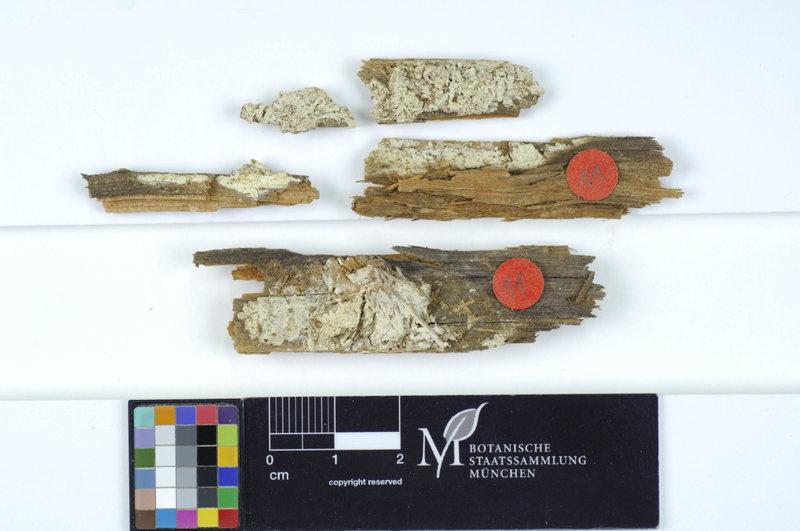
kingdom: Plantae
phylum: Tracheophyta
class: Pinopsida
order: Pinales
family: Pinaceae
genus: Picea
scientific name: Picea
